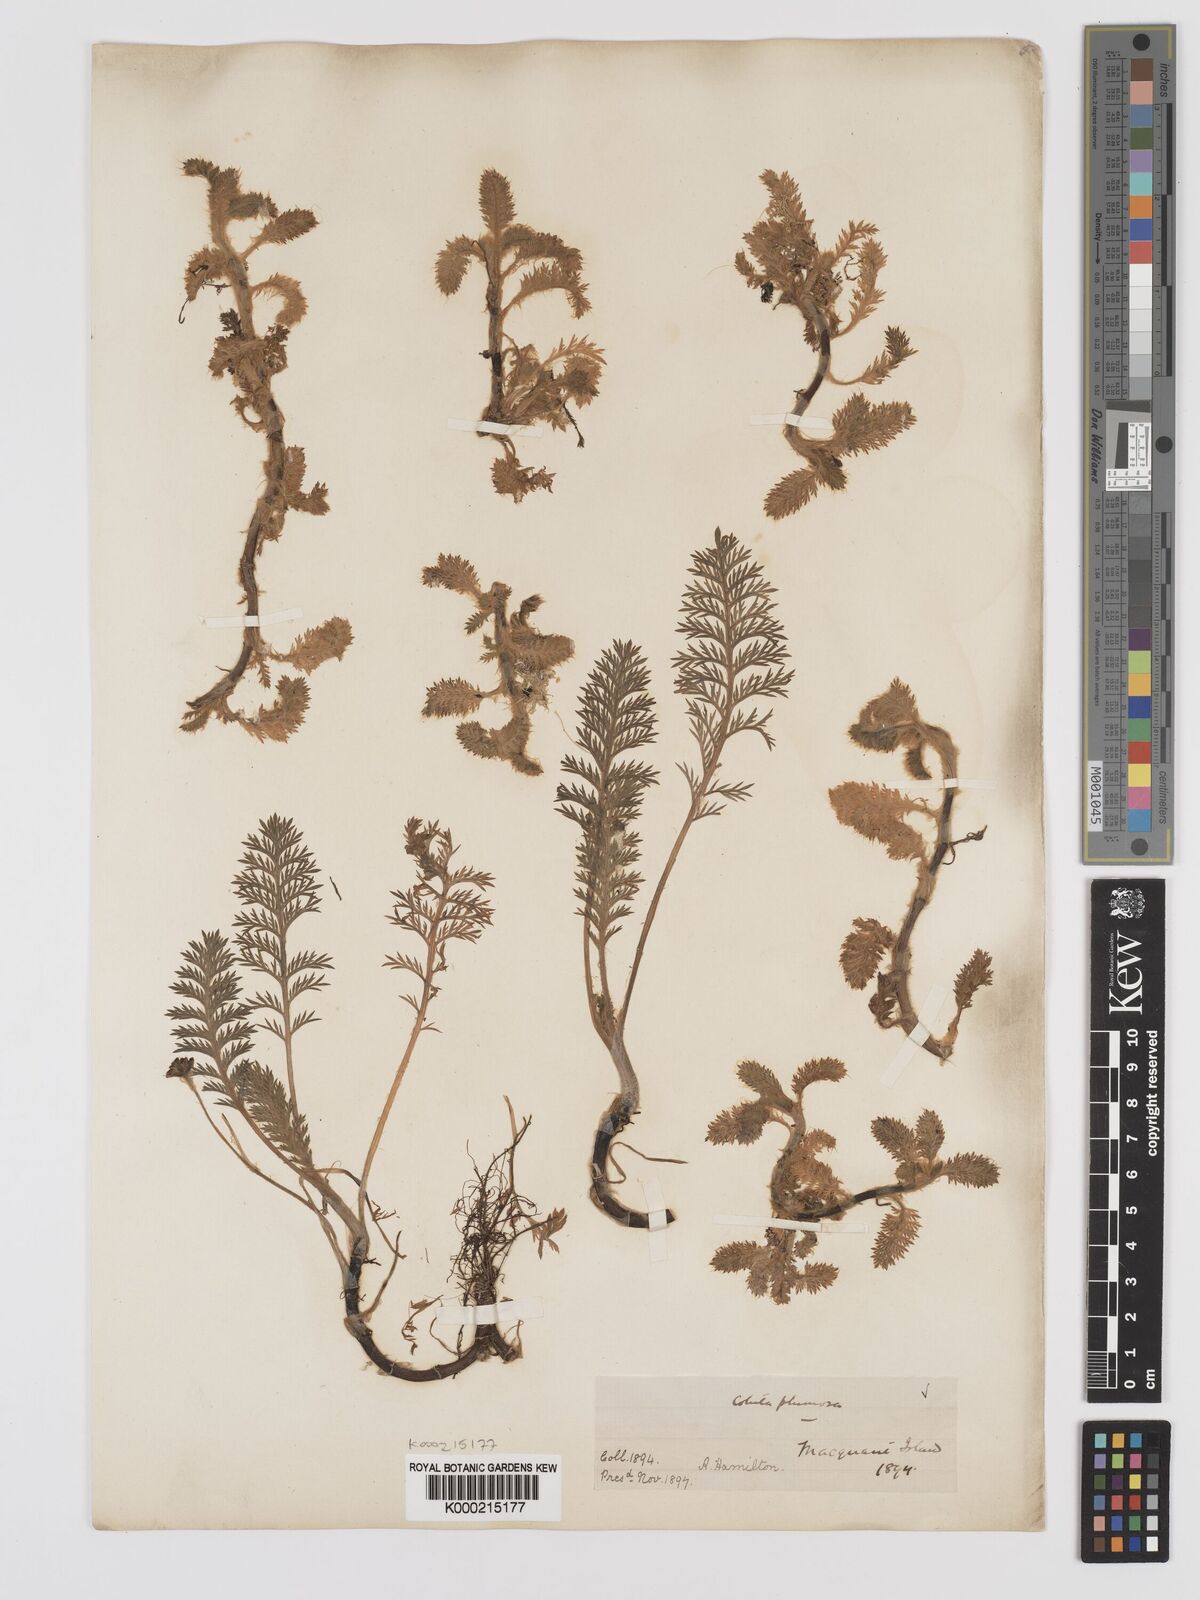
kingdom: Plantae
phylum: Tracheophyta
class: Magnoliopsida
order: Asterales
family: Asteraceae
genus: Leptinella
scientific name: Leptinella
